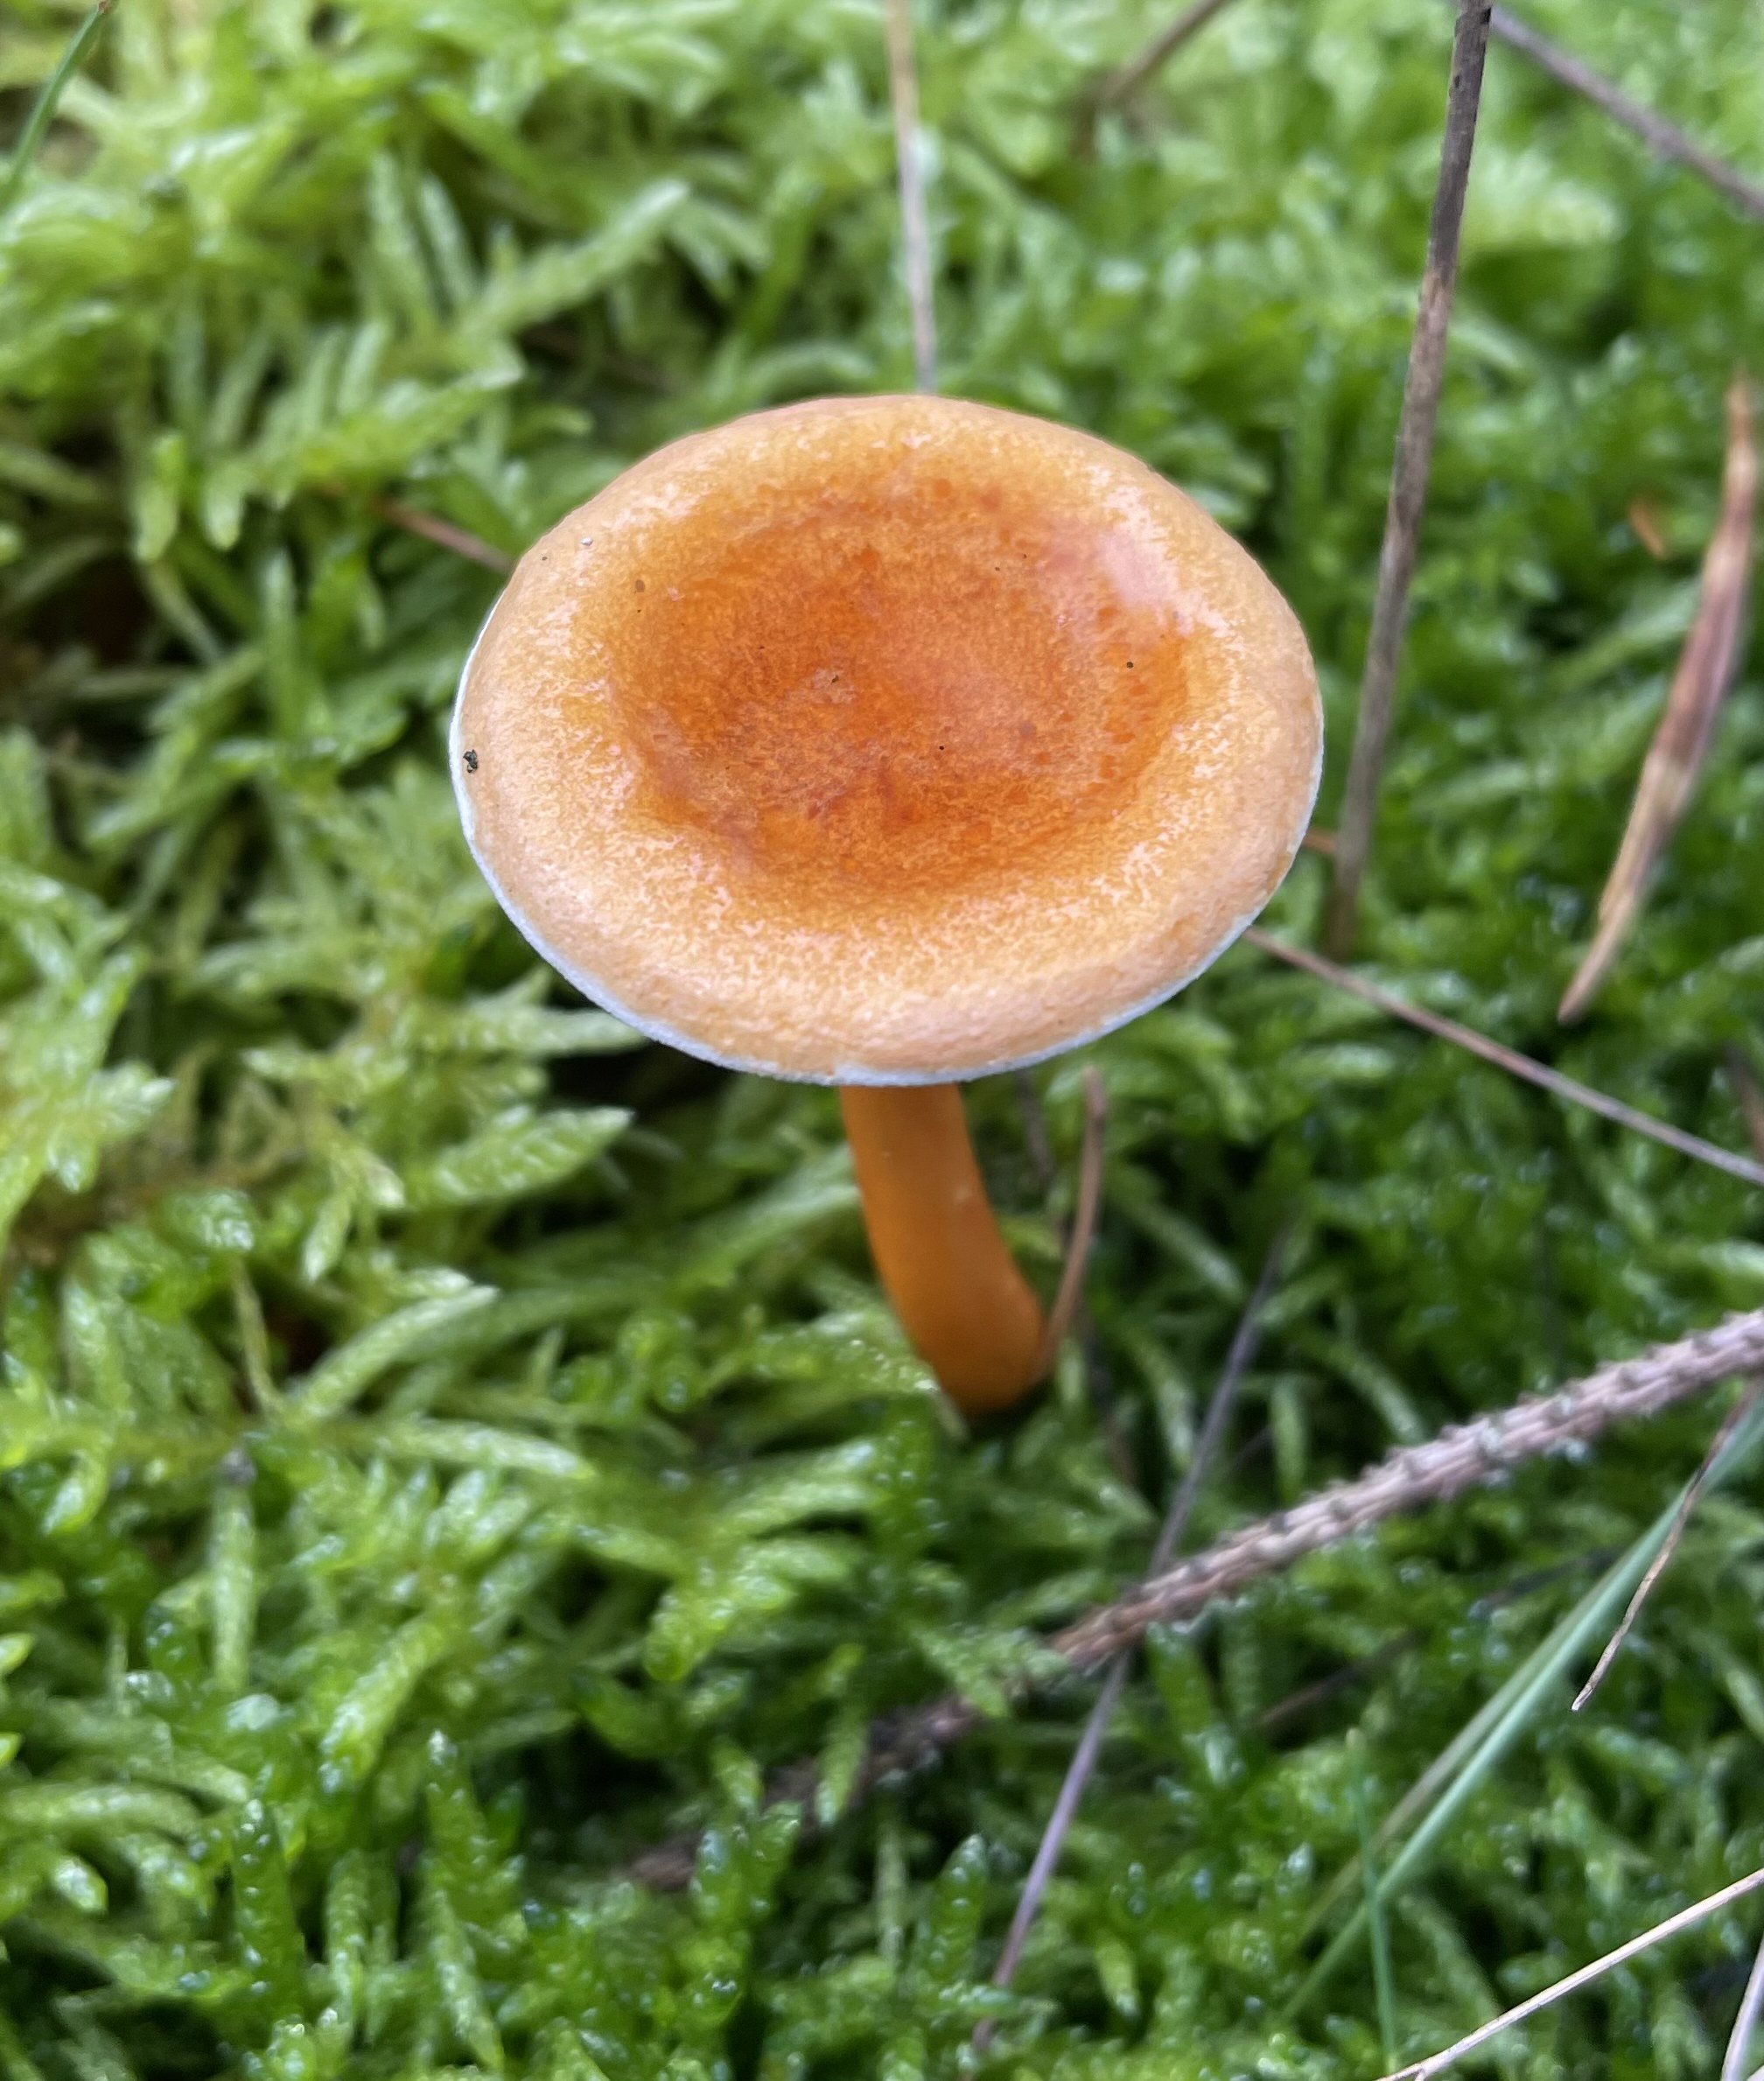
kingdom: Fungi
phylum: Basidiomycota
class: Agaricomycetes
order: Boletales
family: Hygrophoropsidaceae
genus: Hygrophoropsis
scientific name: Hygrophoropsis aurantiaca
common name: almindelig orangekantarel
